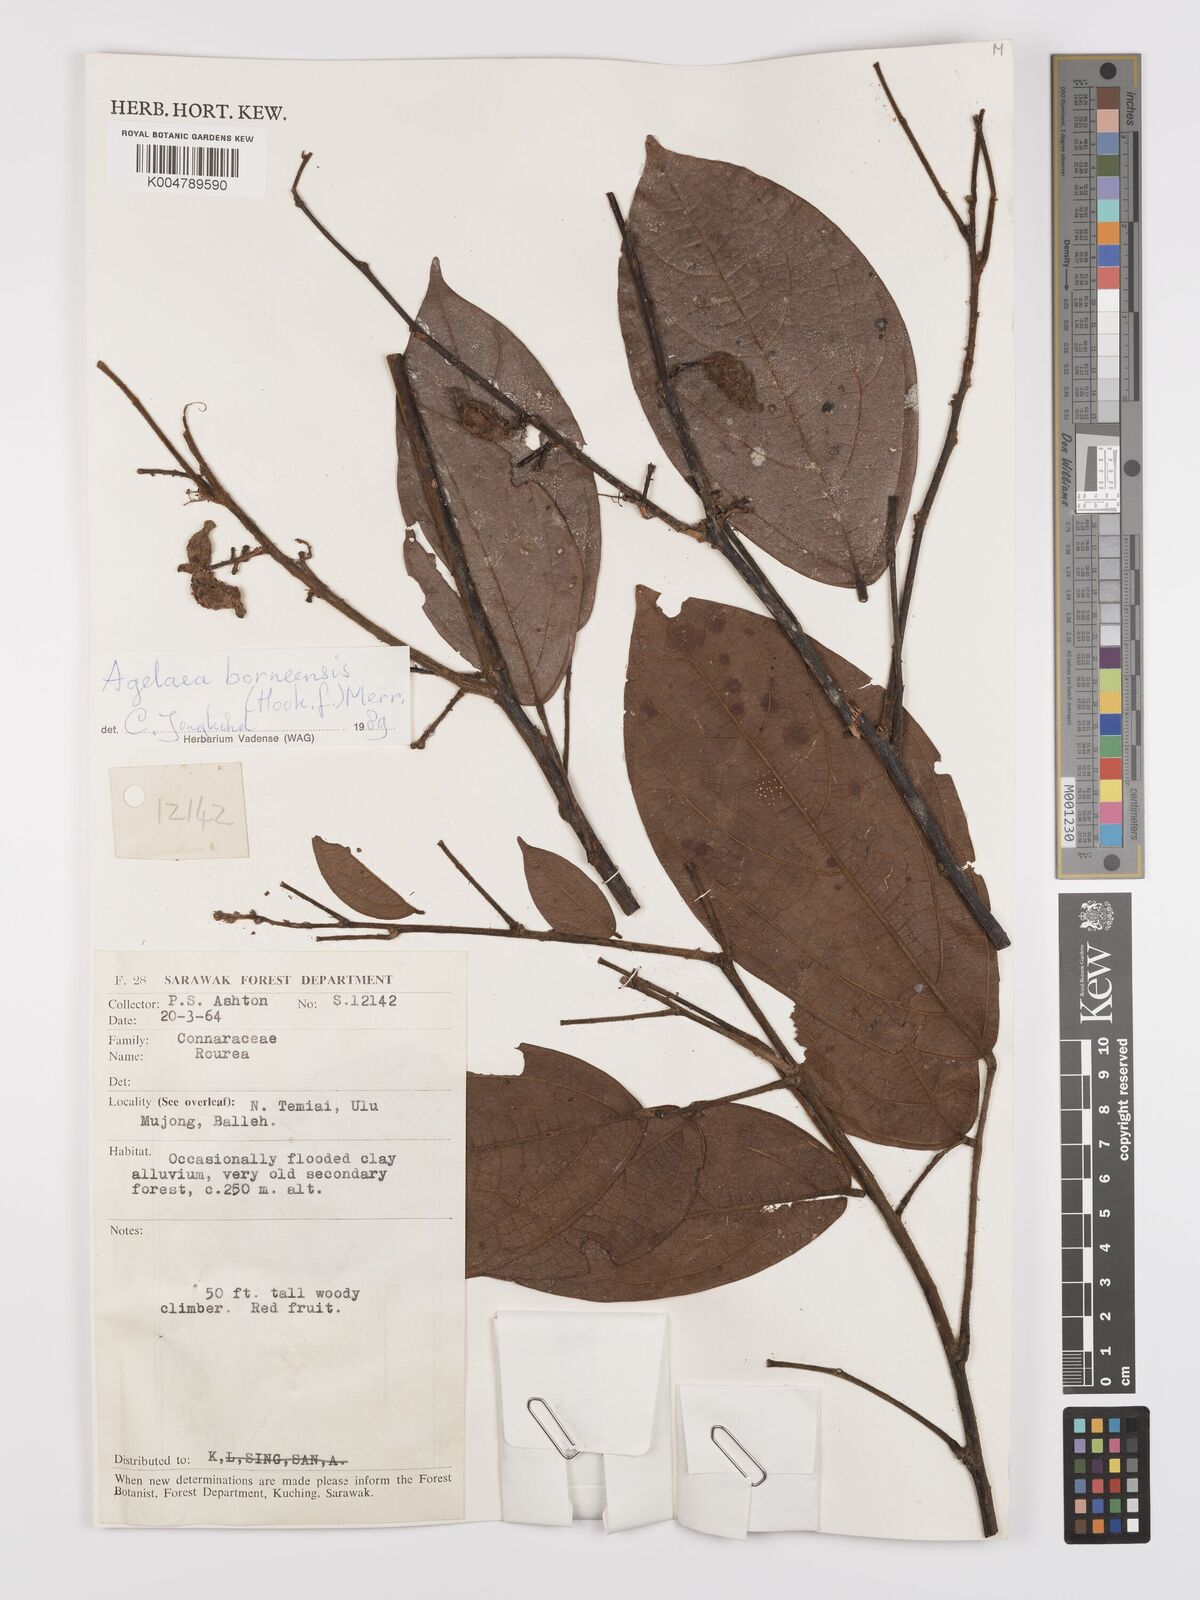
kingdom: Plantae
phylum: Tracheophyta
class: Magnoliopsida
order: Oxalidales
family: Connaraceae
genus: Agelaea
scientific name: Agelaea borneensis
